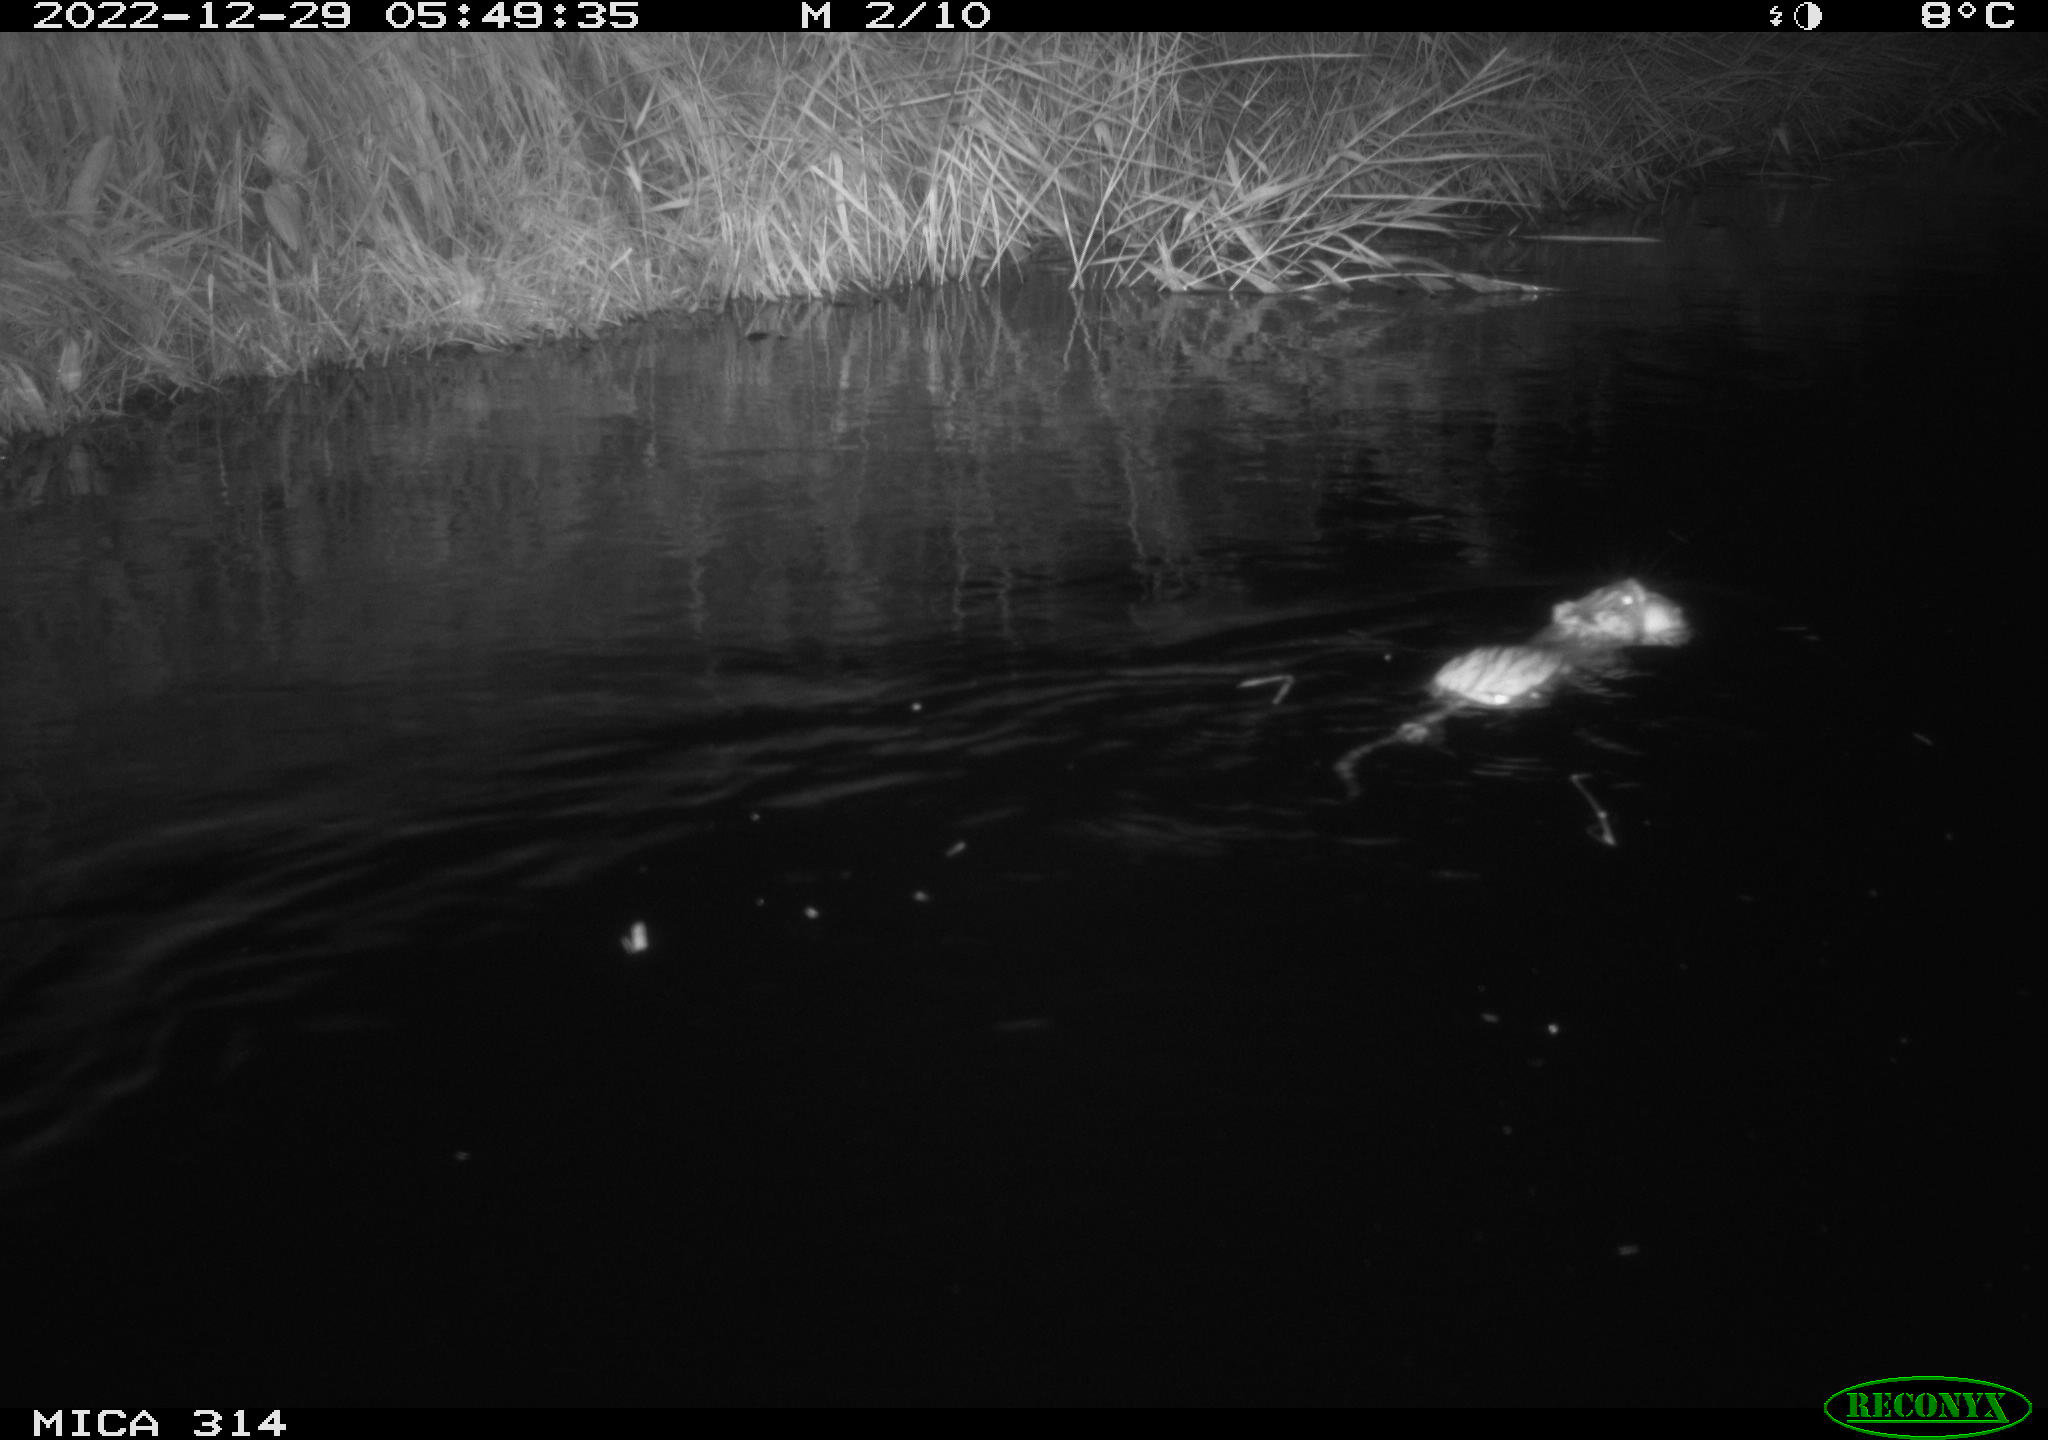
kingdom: Animalia
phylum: Chordata
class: Mammalia
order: Rodentia
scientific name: Rodentia
